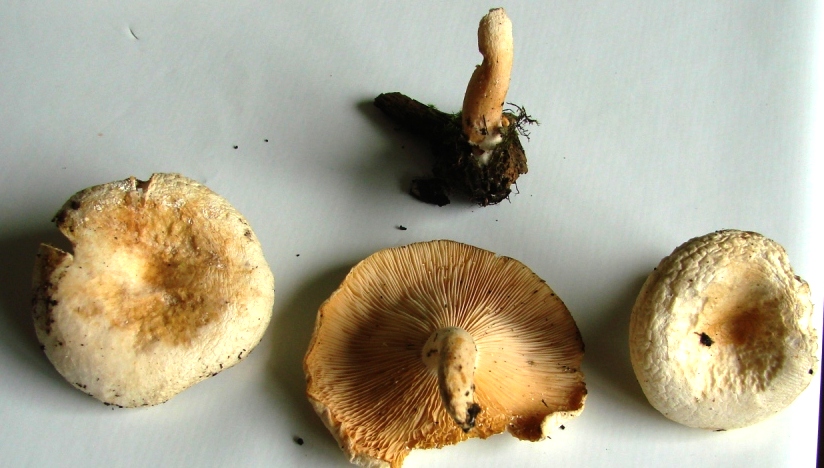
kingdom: Fungi
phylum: Basidiomycota
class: Agaricomycetes
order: Russulales
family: Russulaceae
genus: Lactarius
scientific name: Lactarius scoticus
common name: tørve-mælkehat
